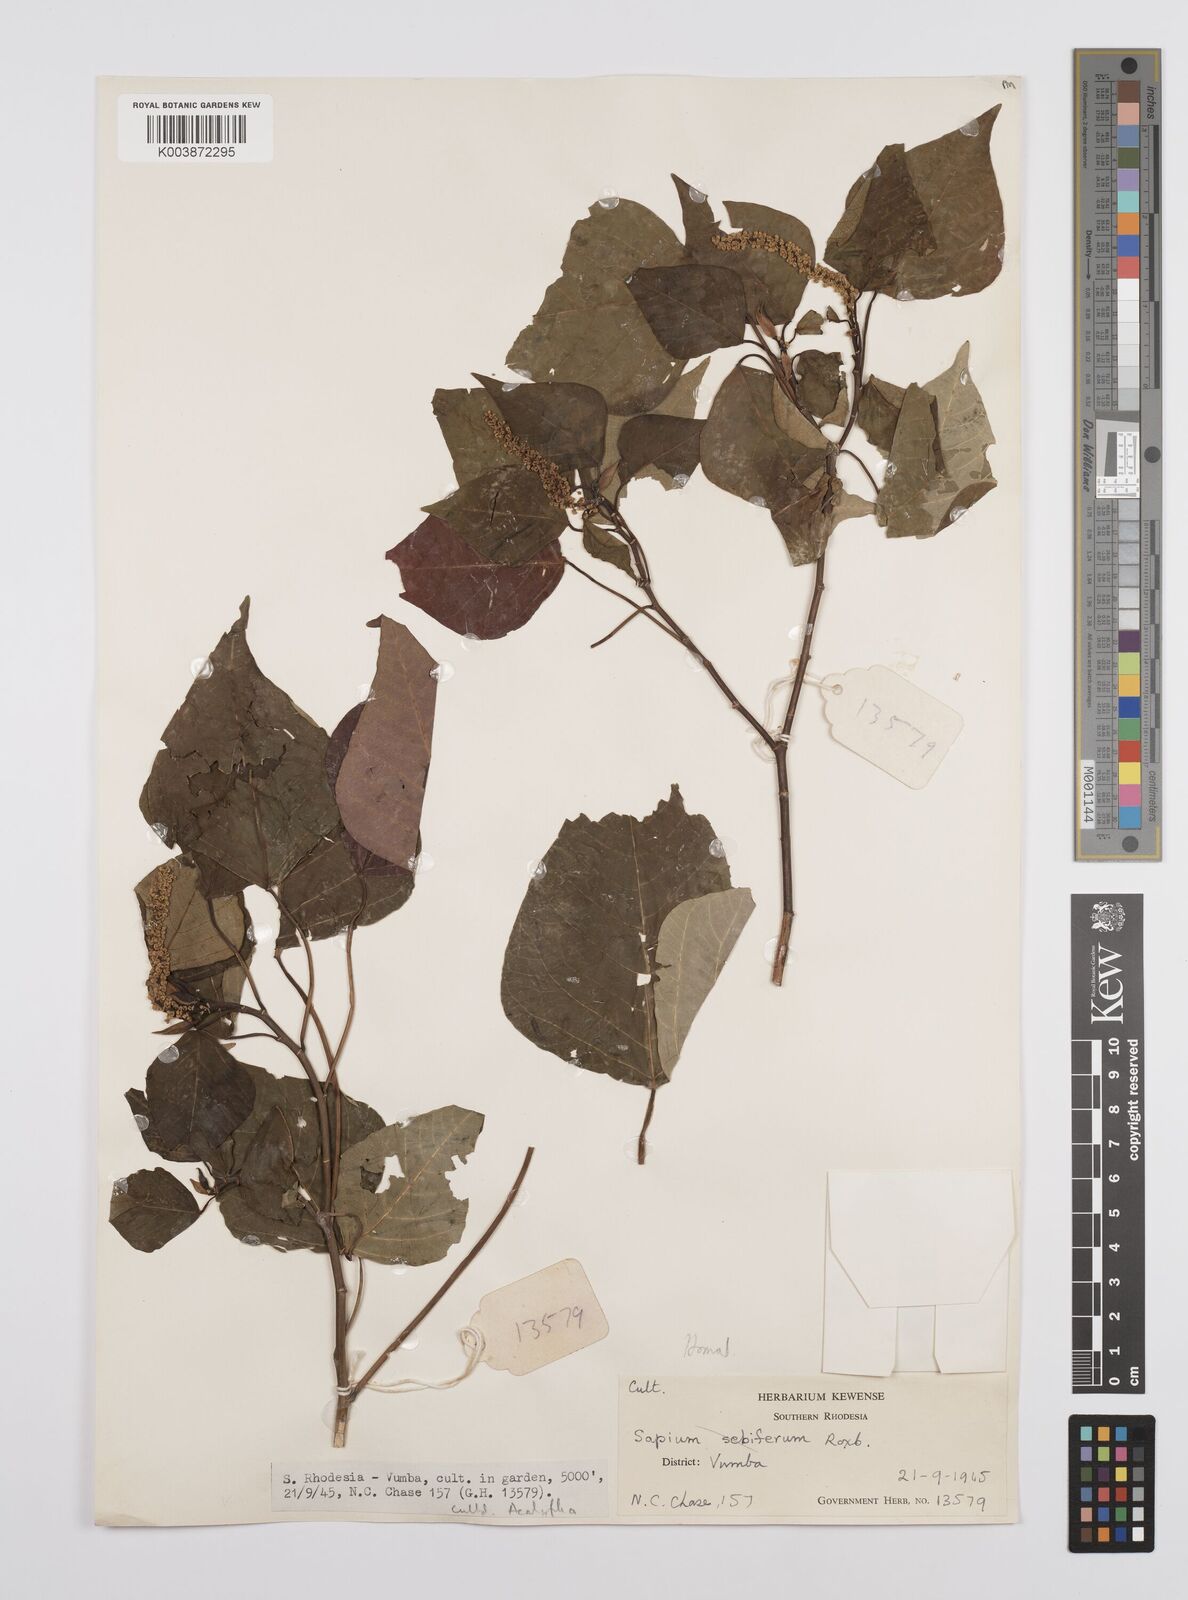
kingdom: Plantae
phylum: Tracheophyta
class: Magnoliopsida
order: Malpighiales
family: Euphorbiaceae
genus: Homalanthus
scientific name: Homalanthus populifolius
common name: Queensland poplar
